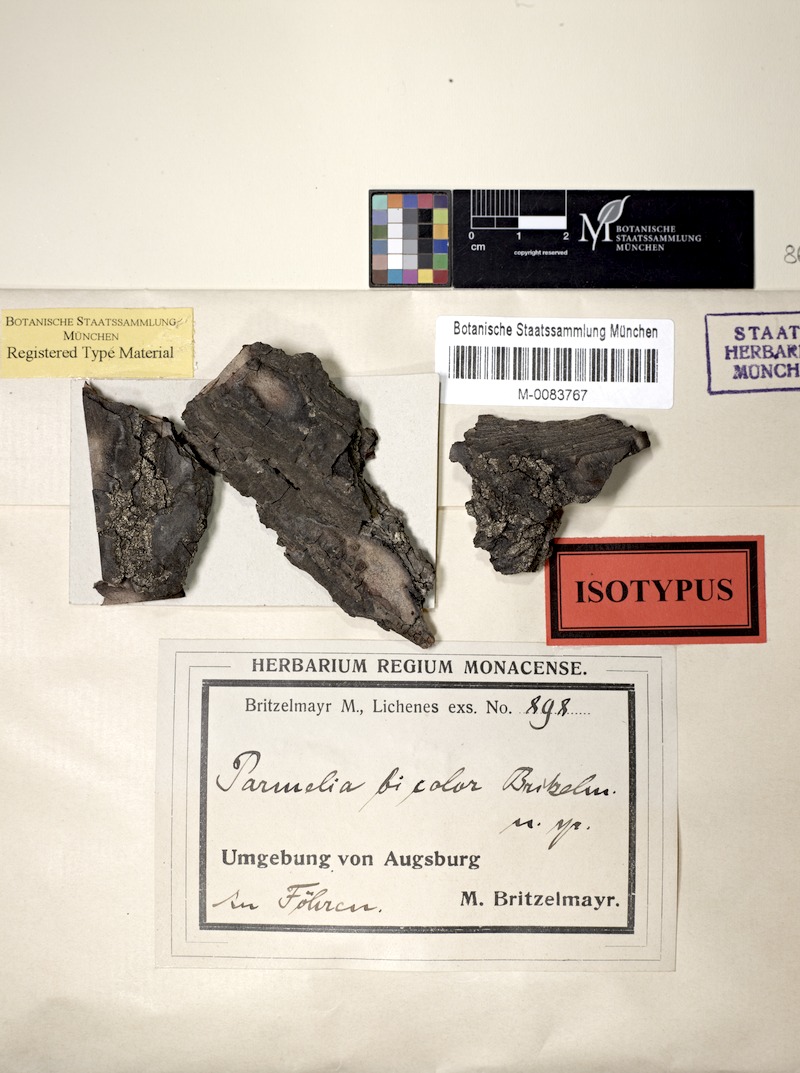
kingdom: Fungi
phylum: Ascomycota
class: Lecanoromycetes
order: Caliciales
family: Physciaceae
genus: Hyperphyscia
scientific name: Hyperphyscia adglutinata
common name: Grainy shadow-crust lichen
